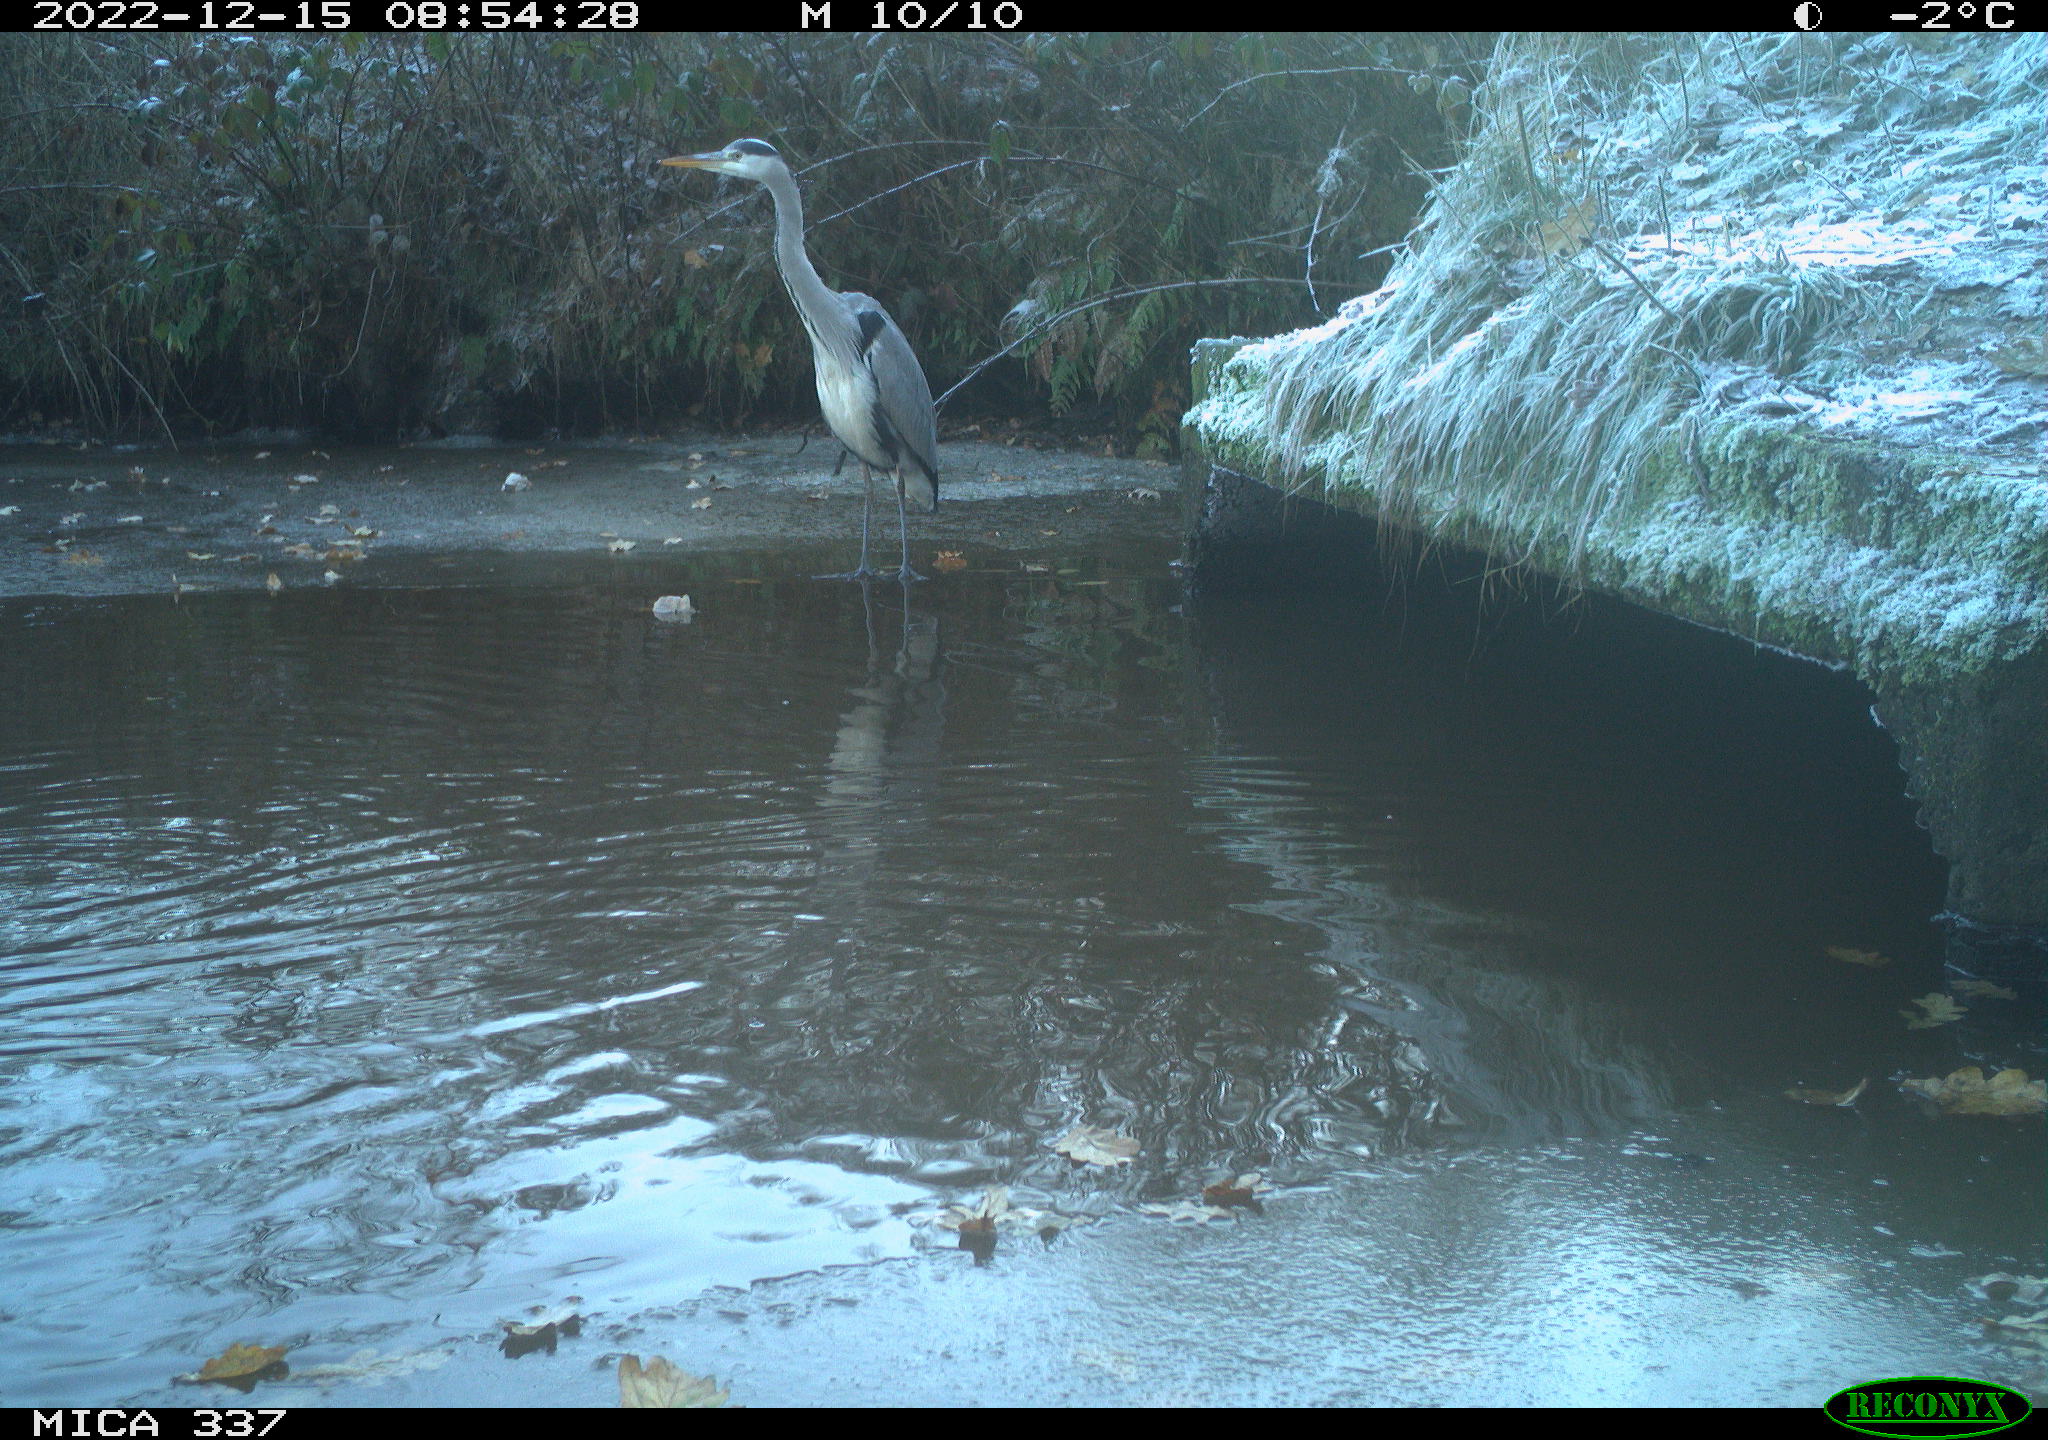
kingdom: Animalia
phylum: Chordata
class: Aves
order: Anseriformes
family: Anatidae
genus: Anas
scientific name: Anas
